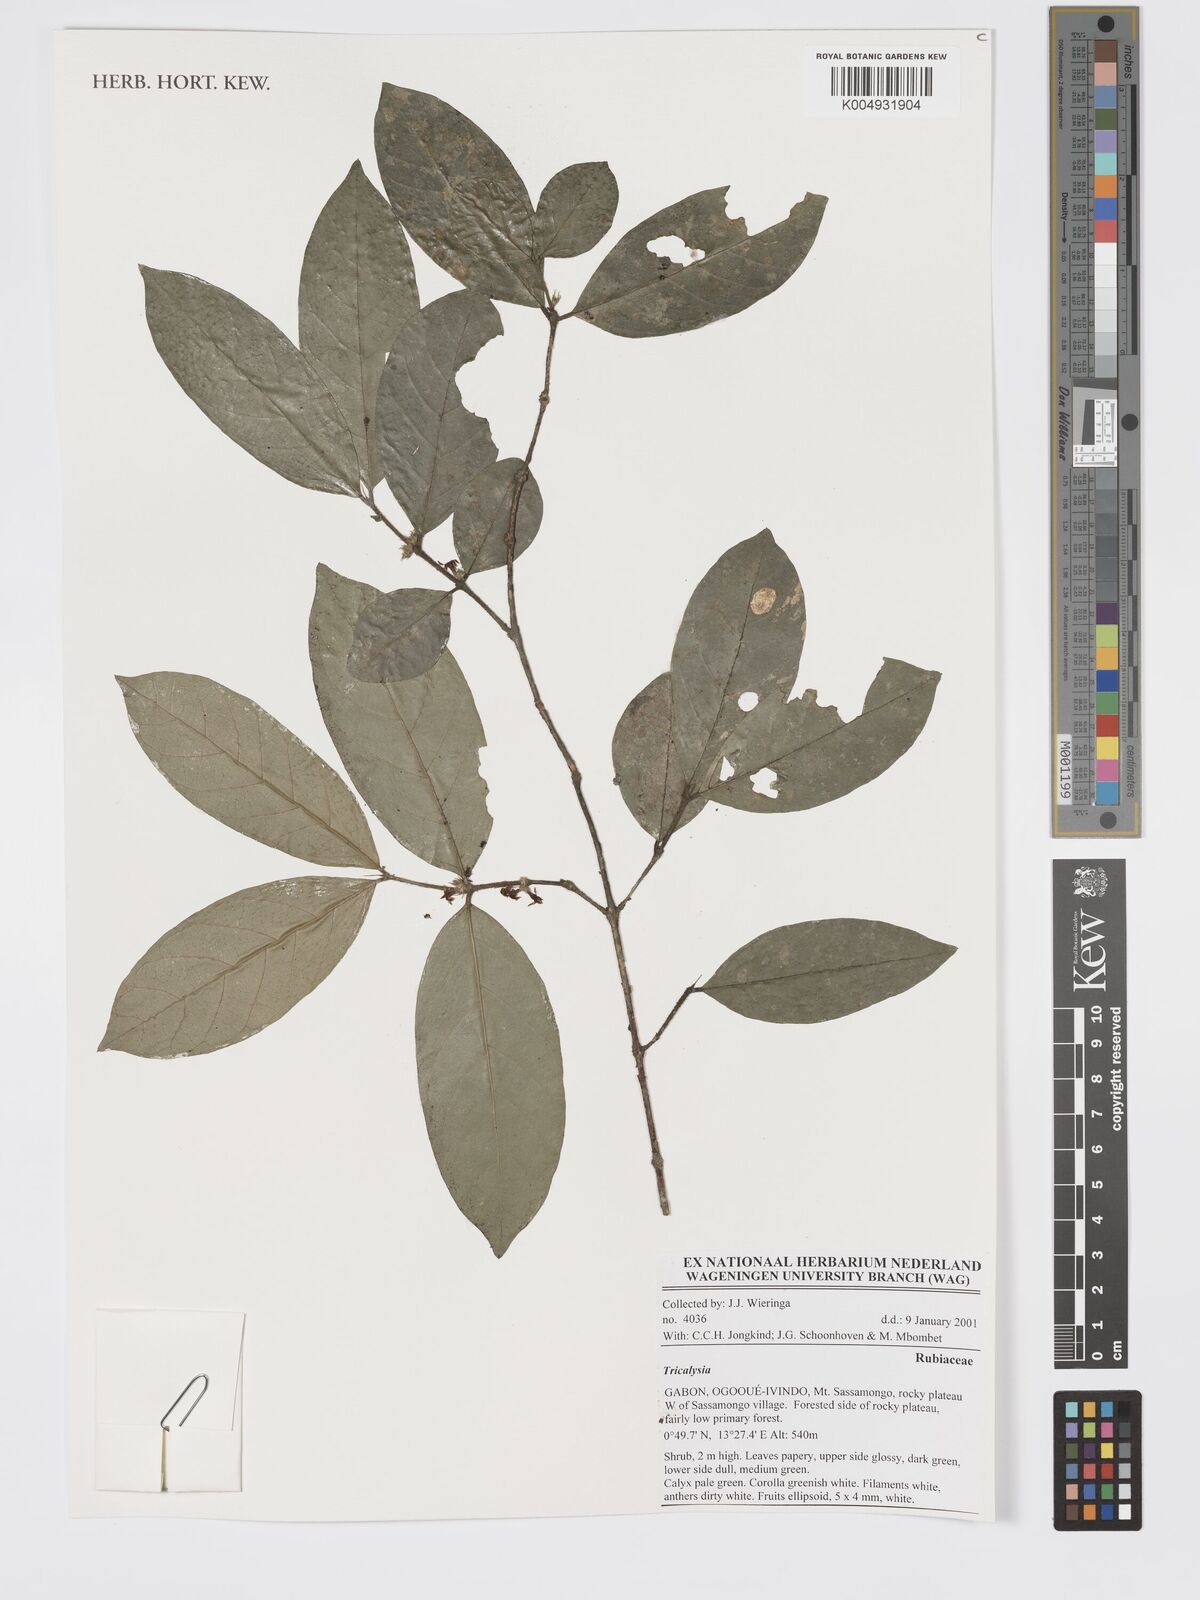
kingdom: Plantae
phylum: Tracheophyta
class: Magnoliopsida
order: Gentianales
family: Rubiaceae
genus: Tricalysia
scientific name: Tricalysia
